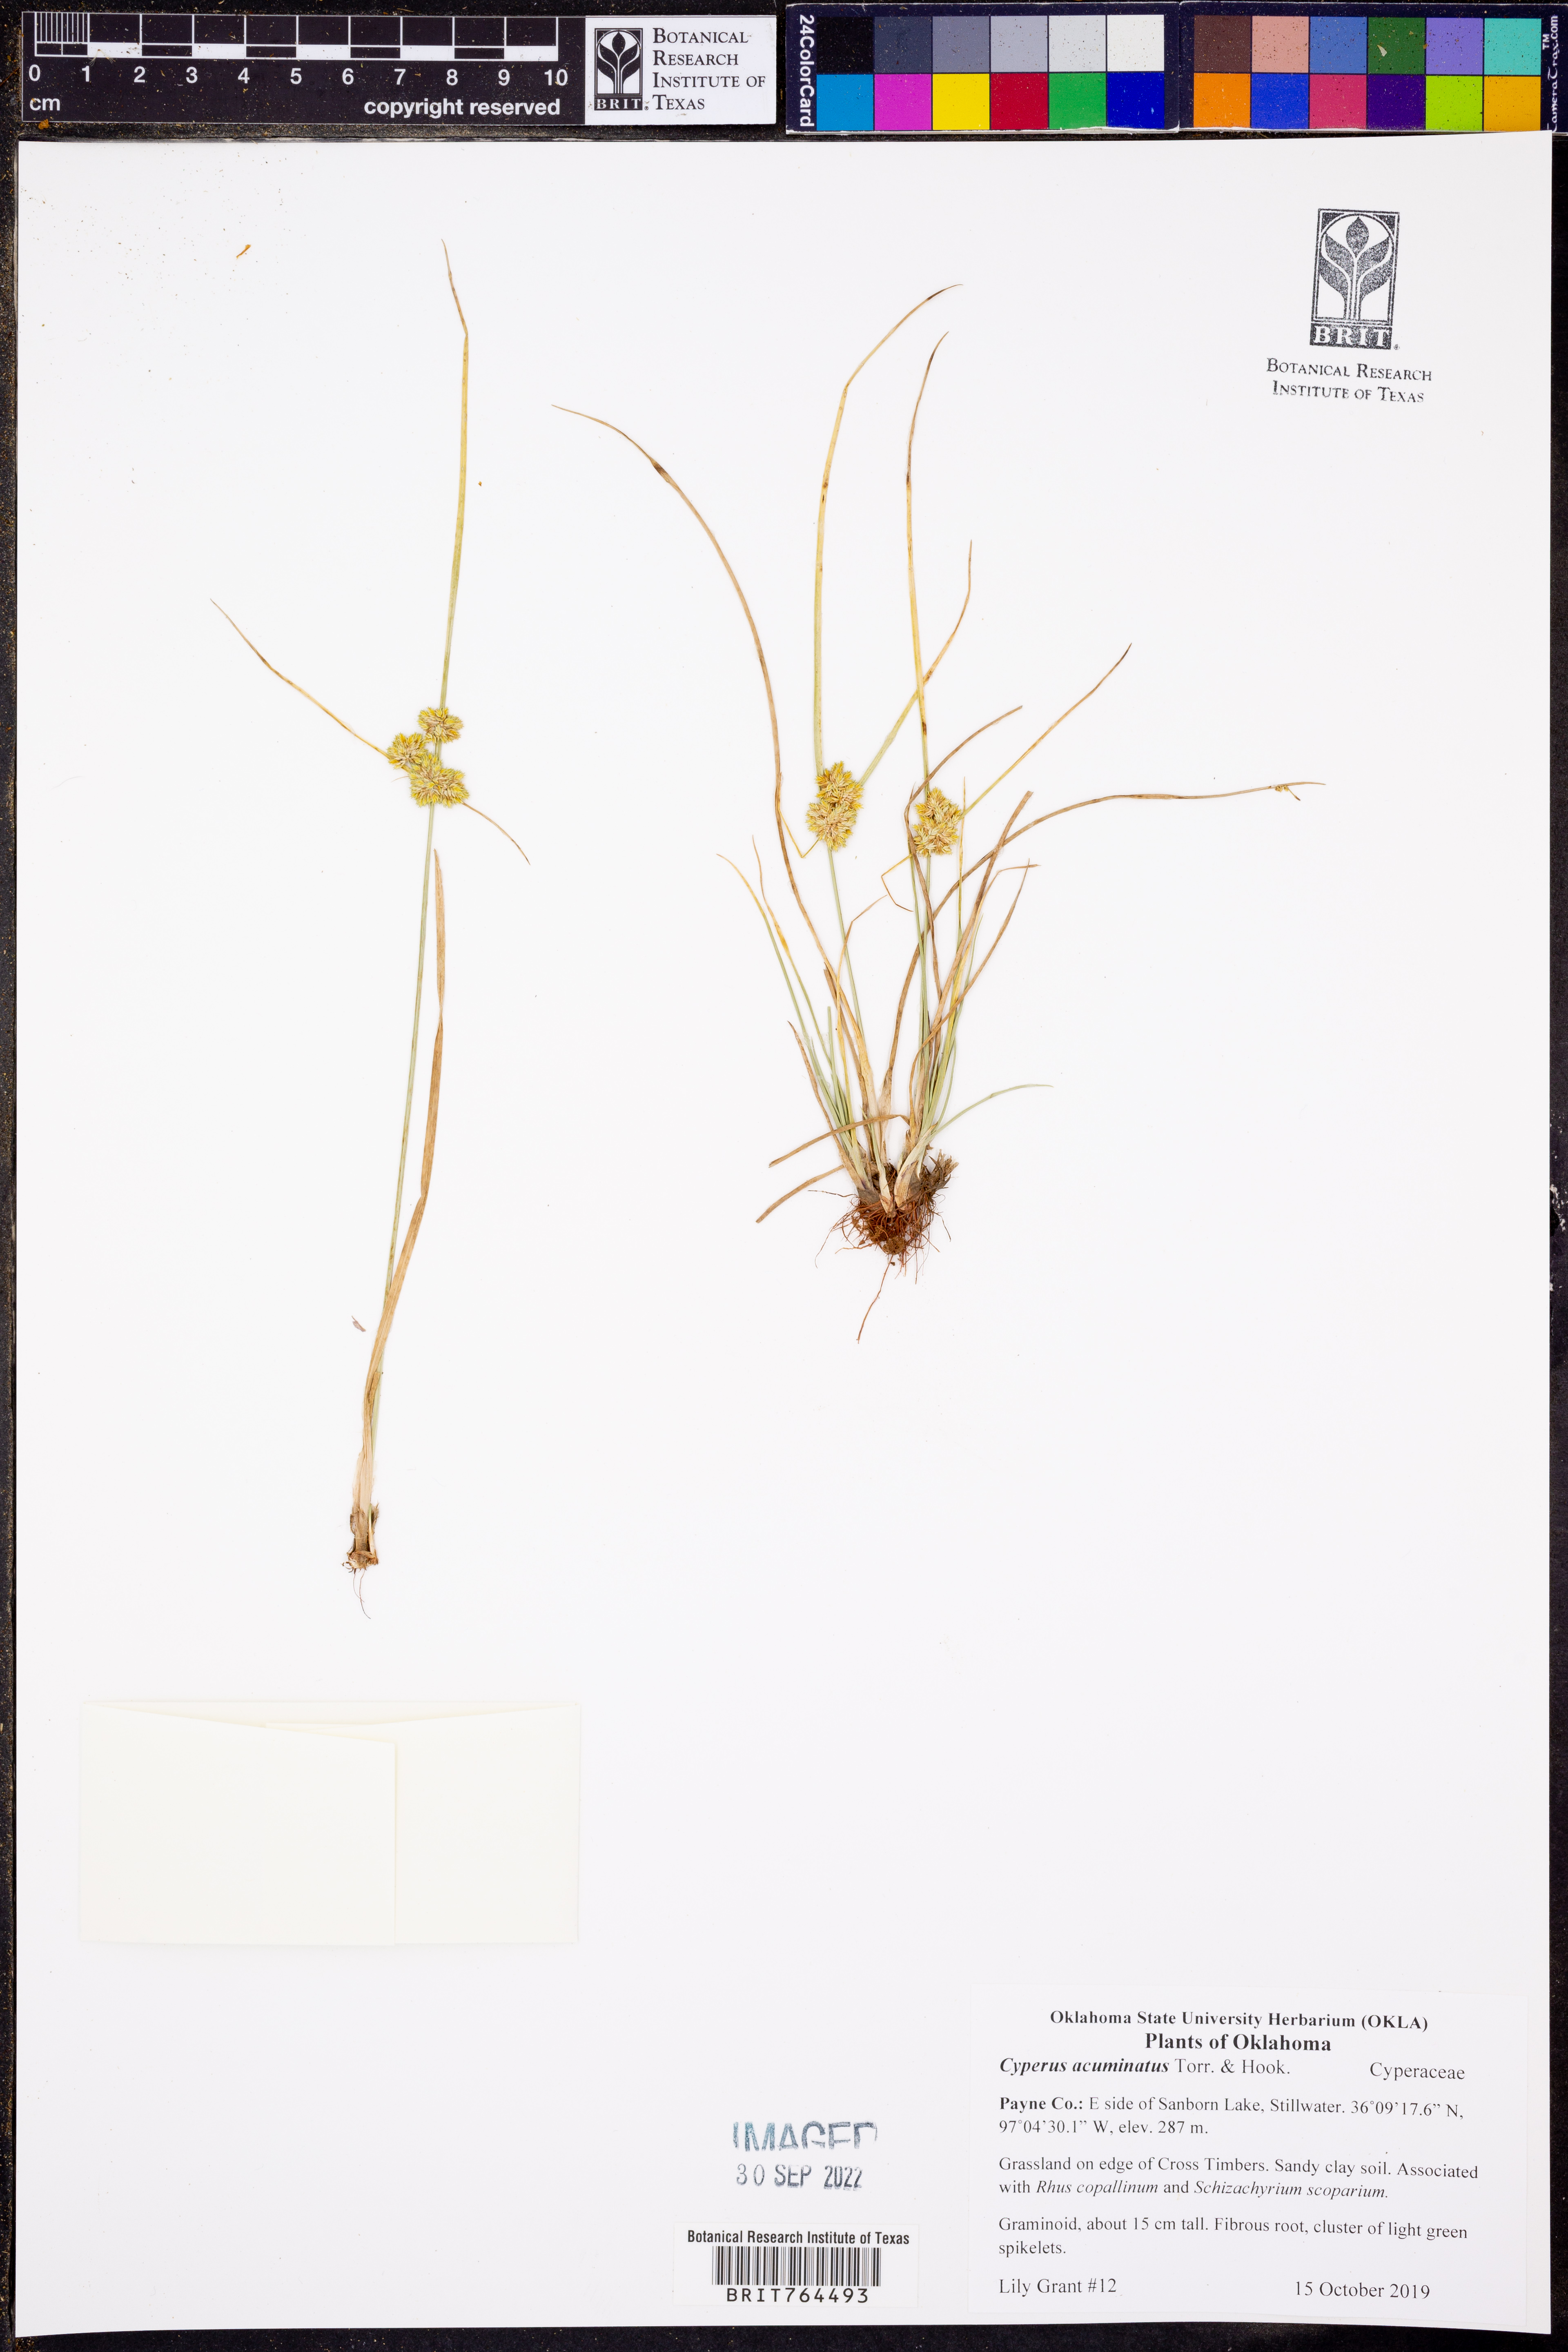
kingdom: Plantae
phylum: Tracheophyta
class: Liliopsida
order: Poales
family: Cyperaceae
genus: Cyperus
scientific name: Cyperus acuminatus
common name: Short-pointed cyperus
